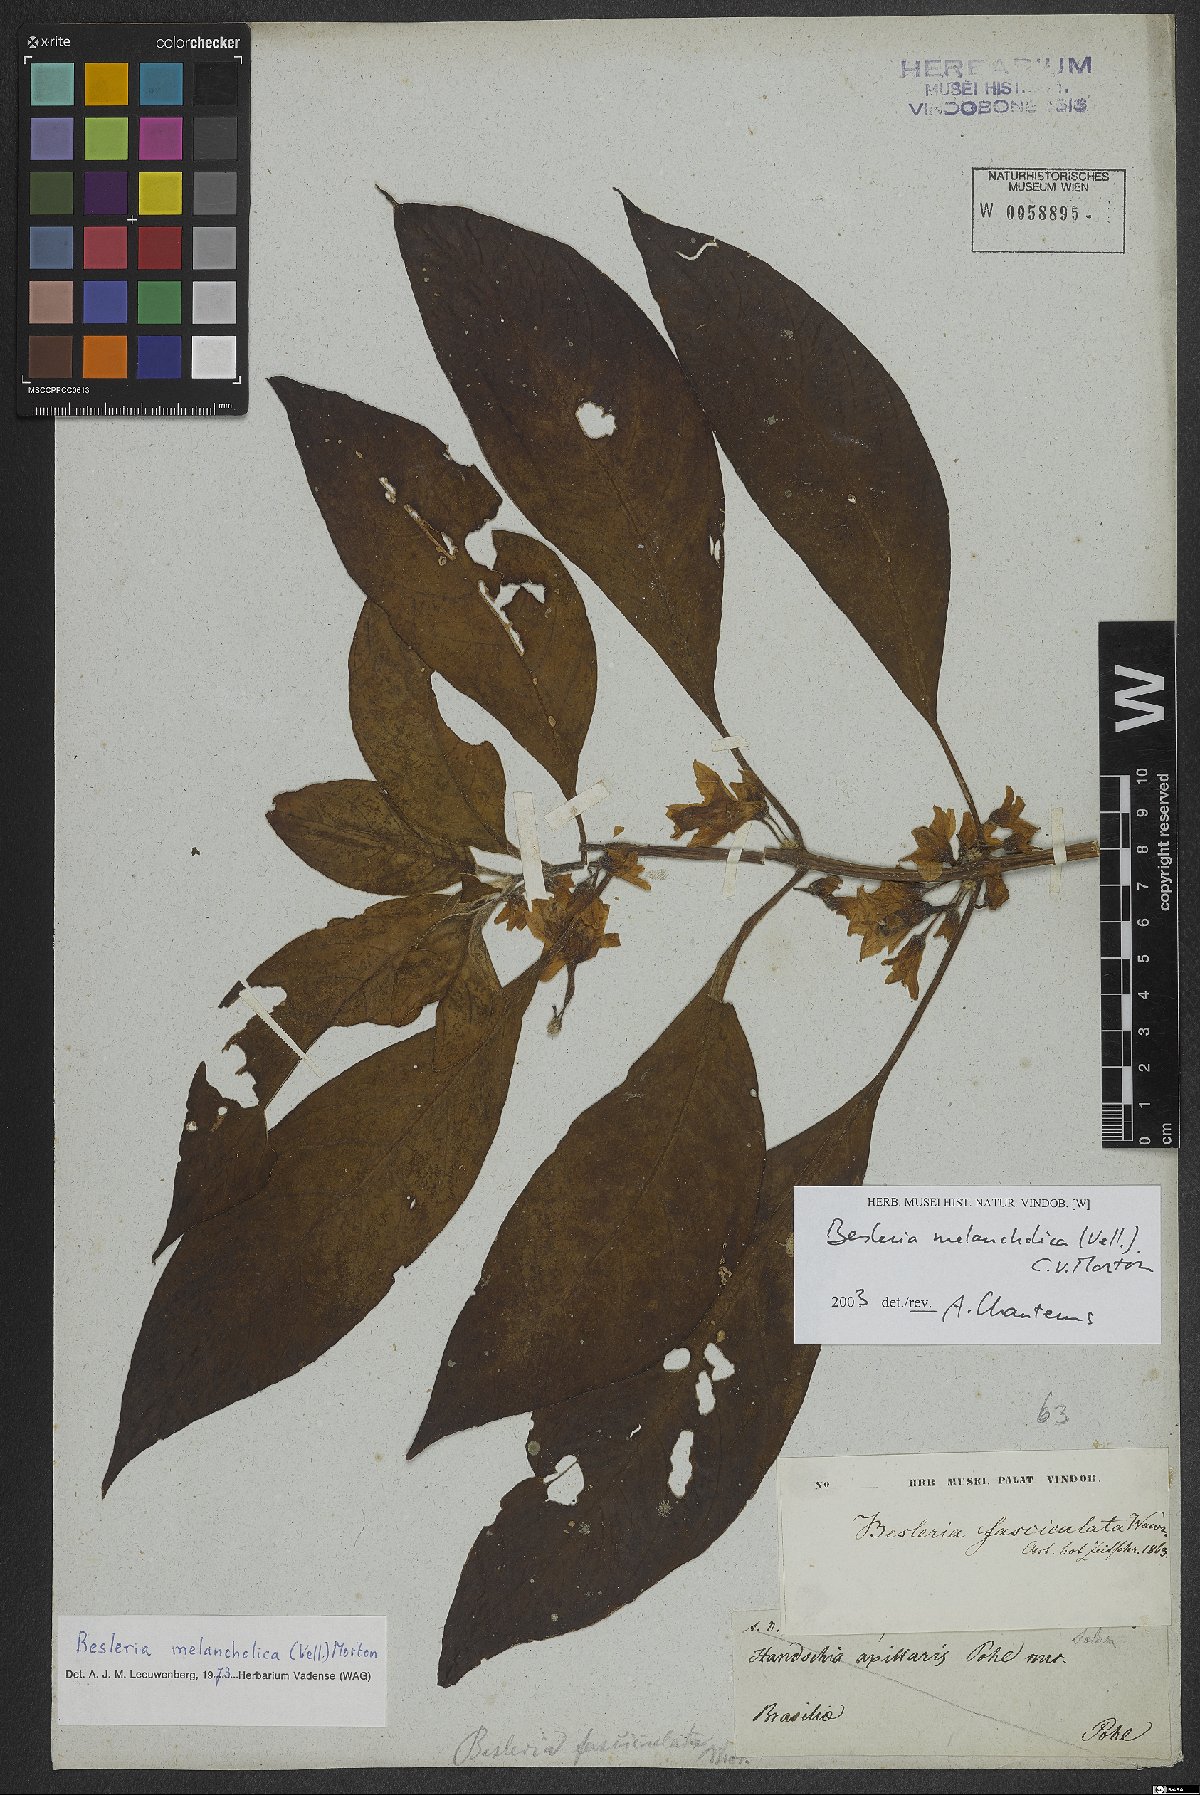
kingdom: Plantae
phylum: Tracheophyta
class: Magnoliopsida
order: Lamiales
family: Gesneriaceae
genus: Besleria
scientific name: Besleria melancholica
